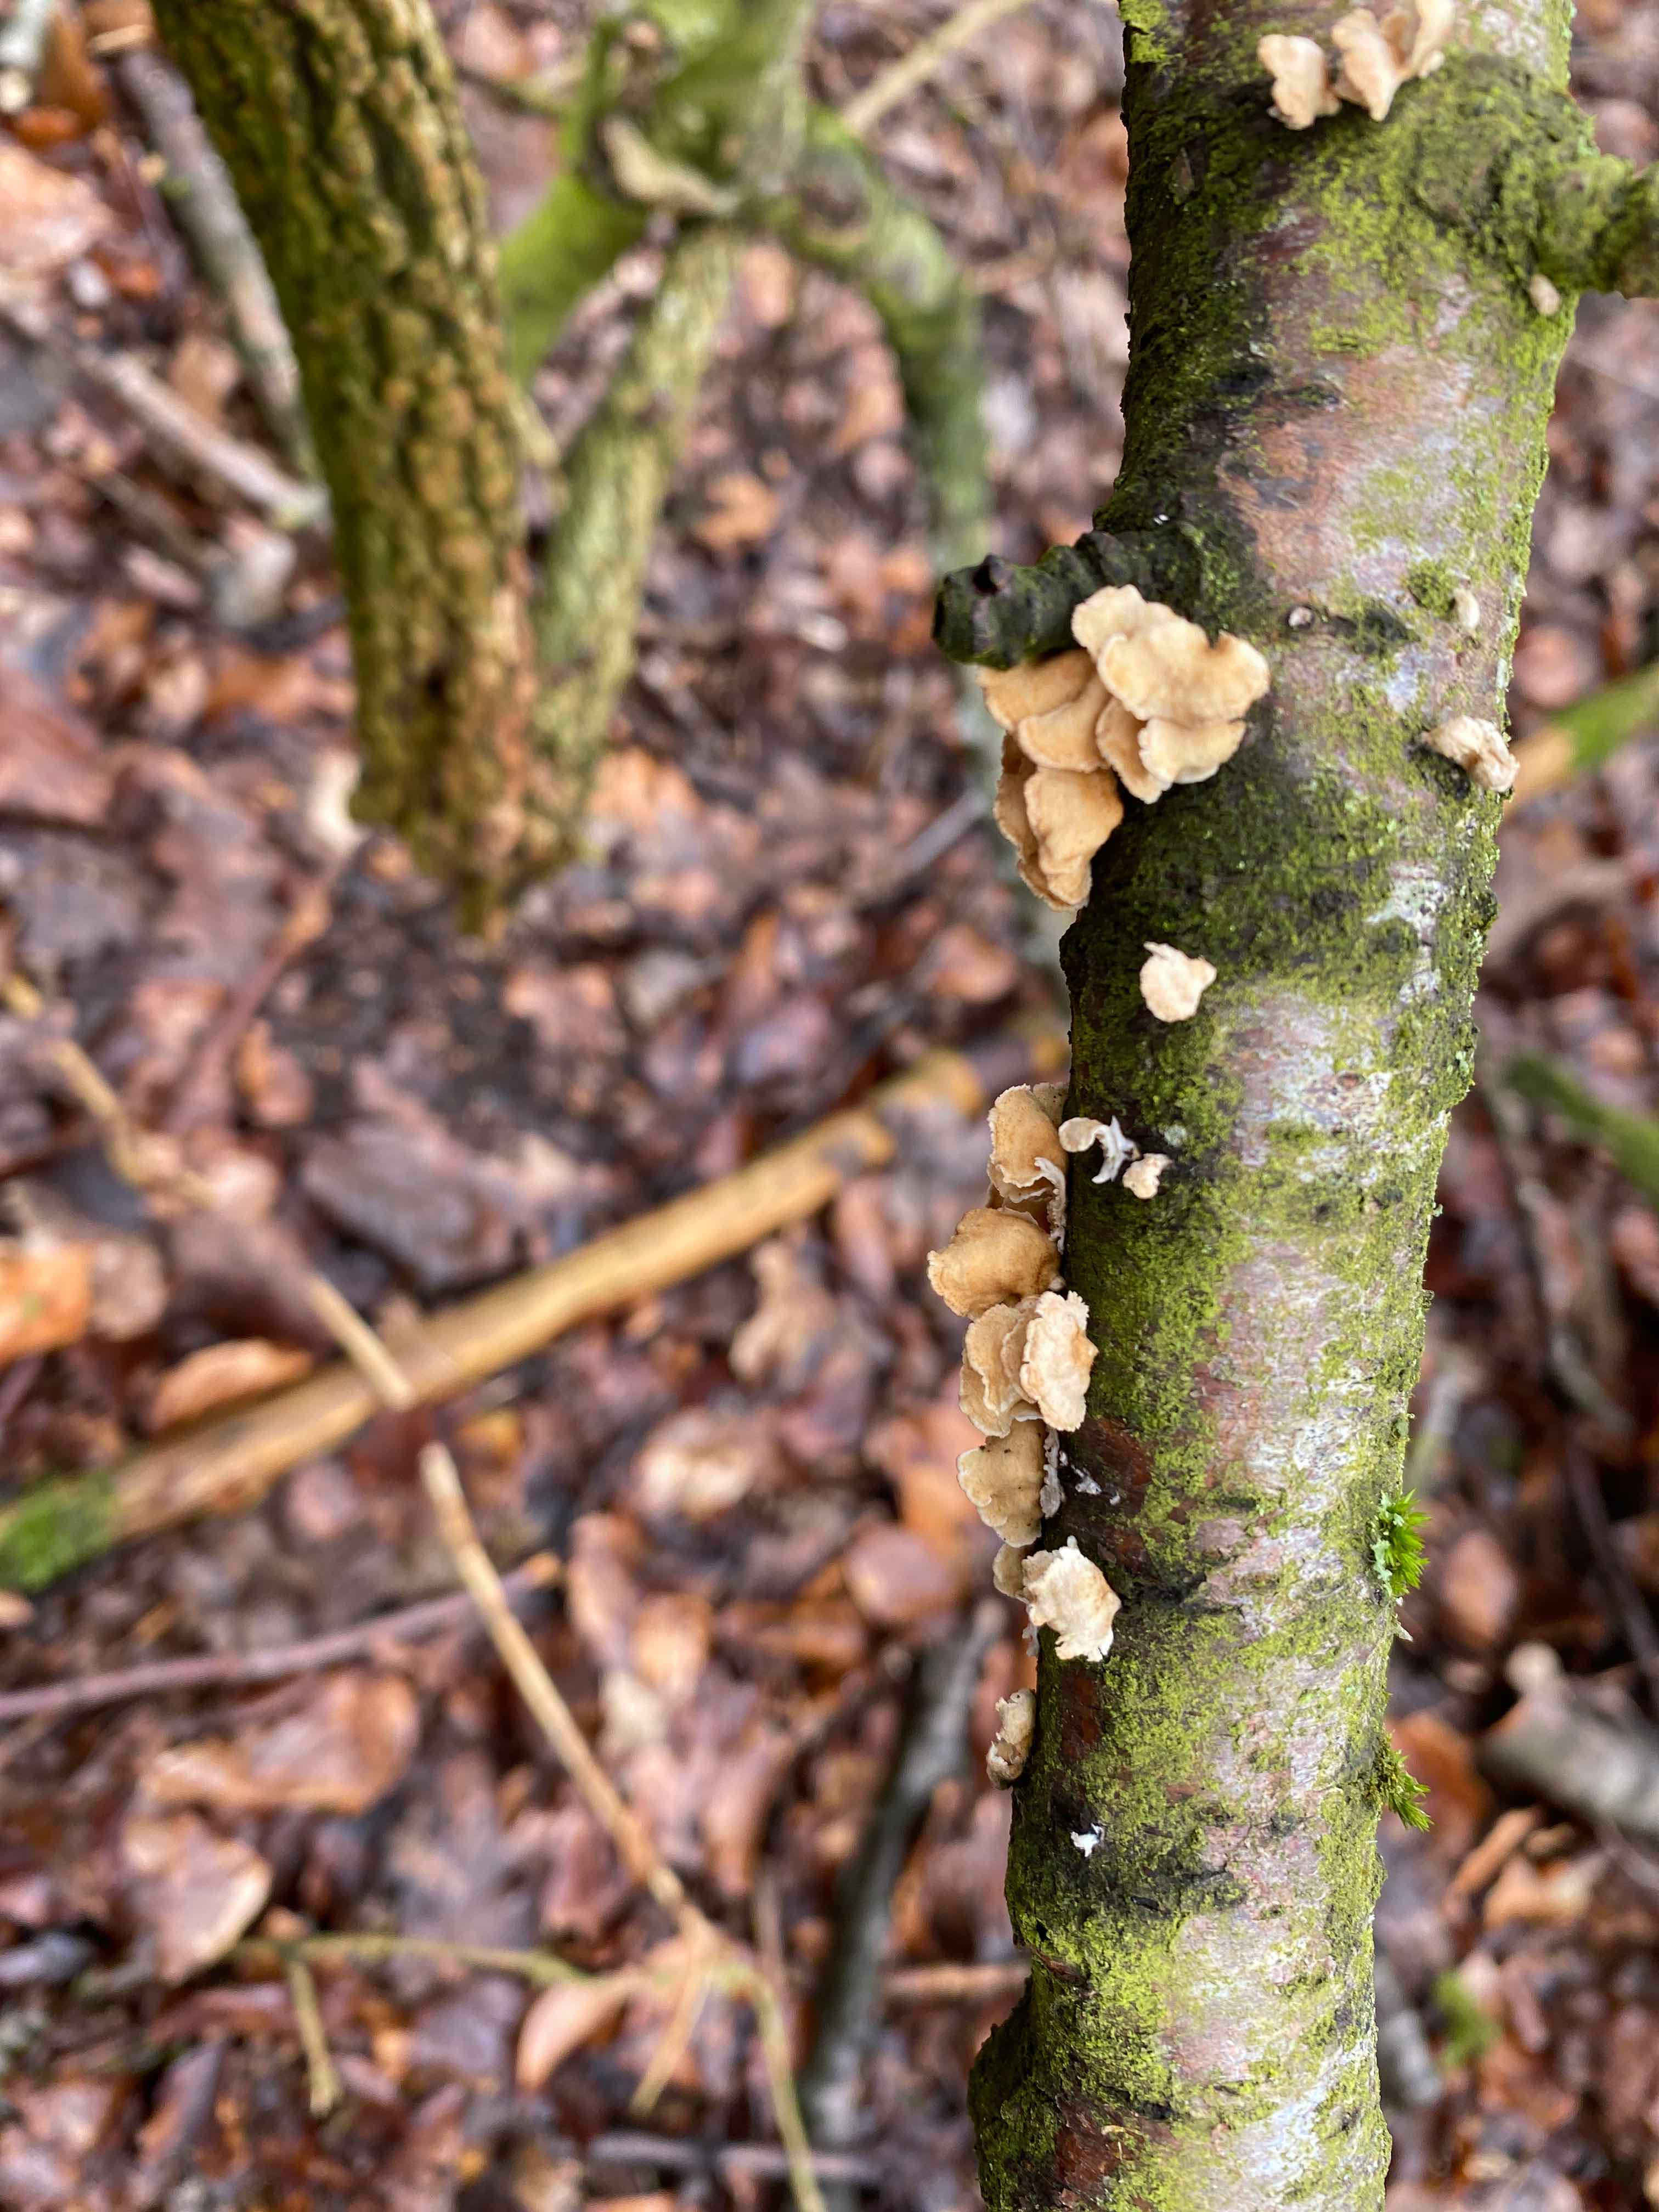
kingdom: Fungi
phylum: Basidiomycota
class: Agaricomycetes
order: Amylocorticiales
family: Amylocorticiaceae
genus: Plicaturopsis
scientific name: Plicaturopsis crispa
